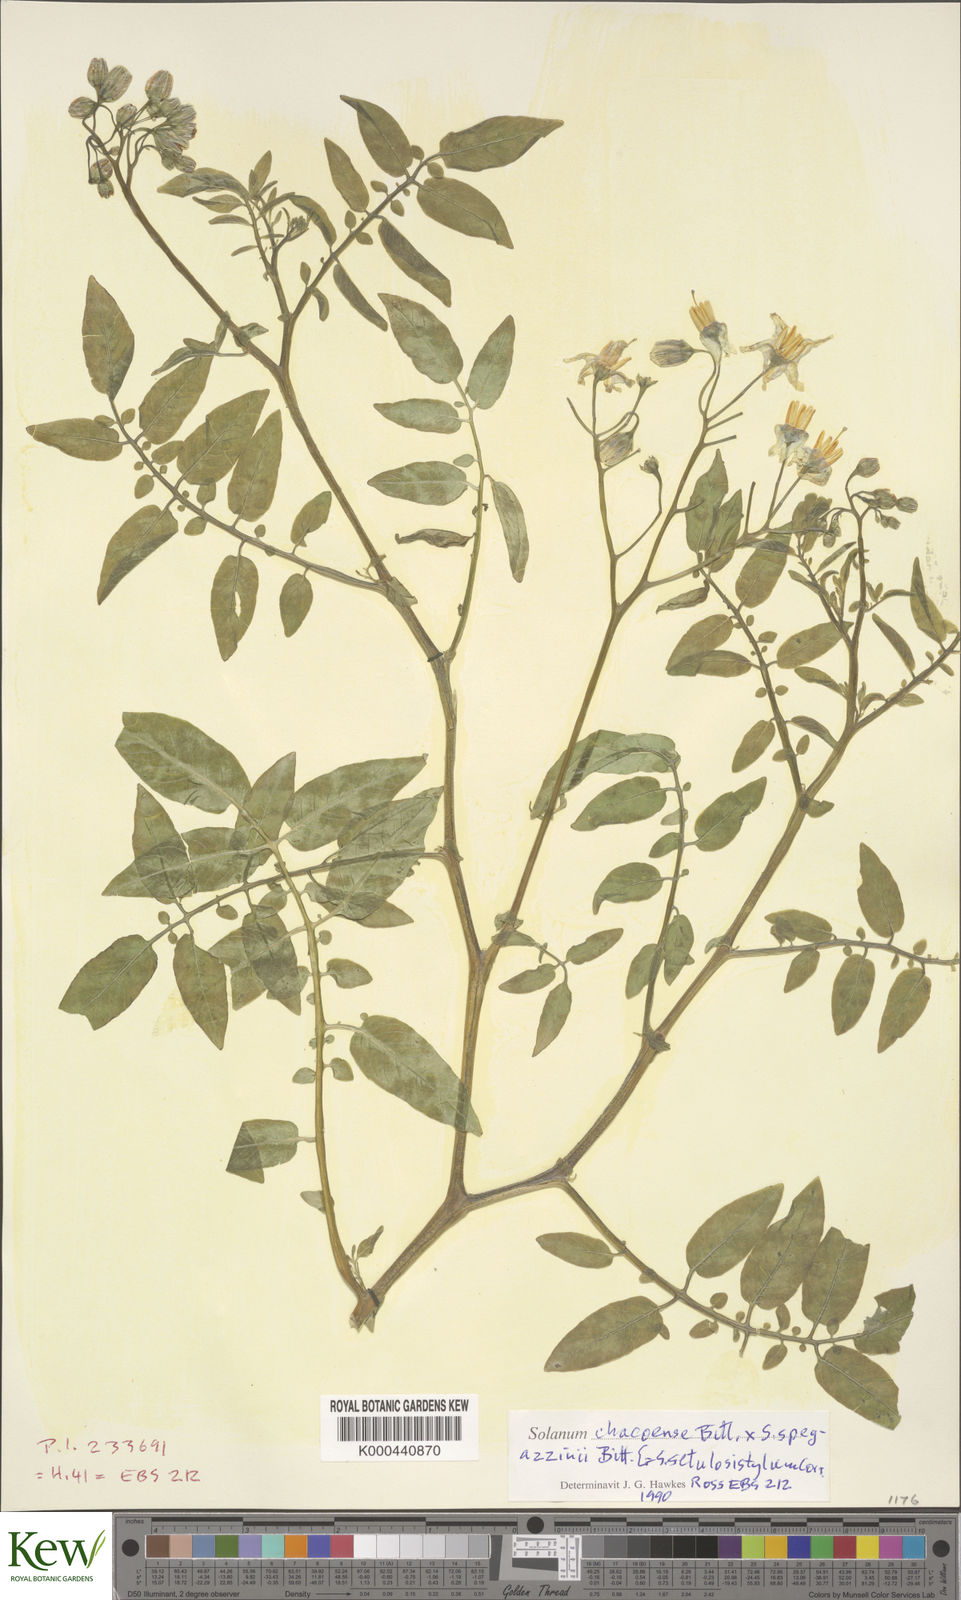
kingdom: Plantae
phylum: Tracheophyta
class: Magnoliopsida
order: Solanales
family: Solanaceae
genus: Solanum
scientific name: Solanum chacoense
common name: Chaco potato
